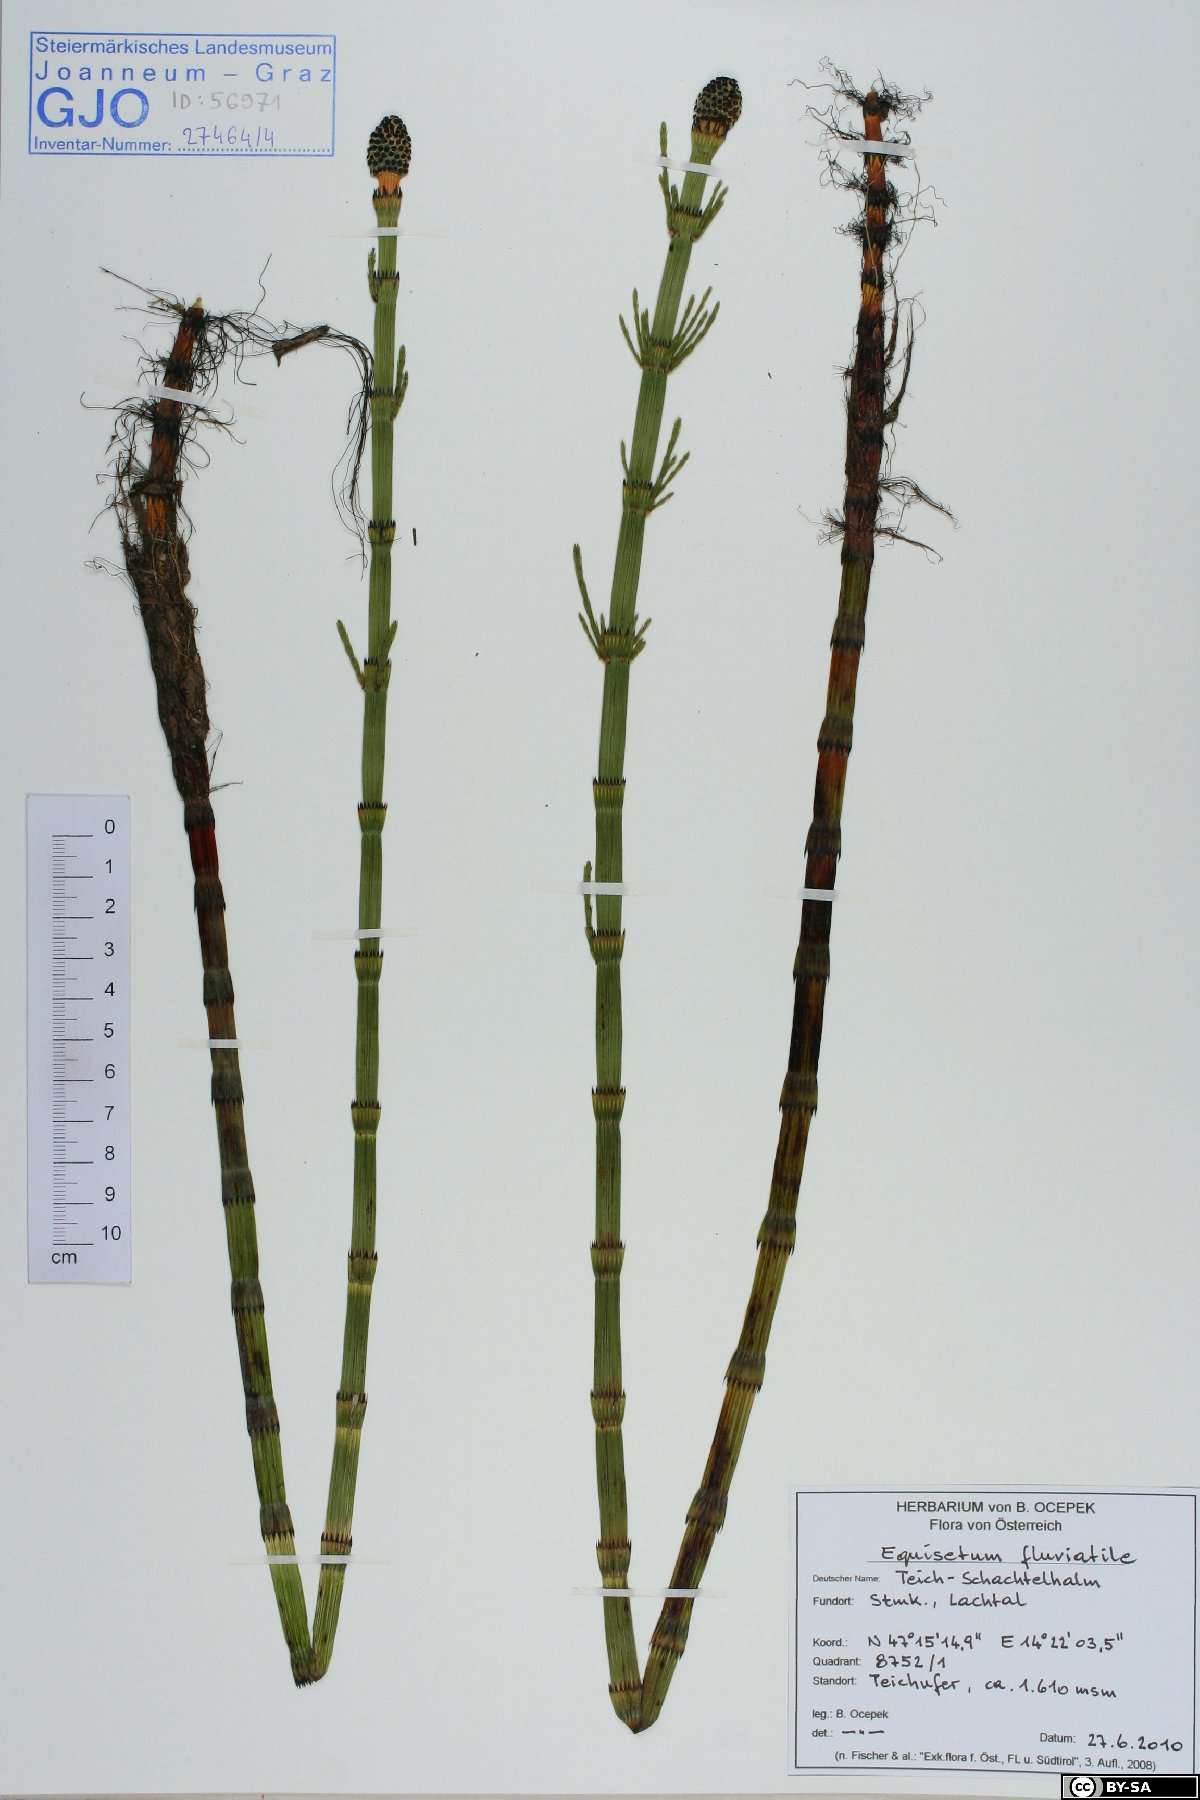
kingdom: Plantae
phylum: Tracheophyta
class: Polypodiopsida
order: Equisetales
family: Equisetaceae
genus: Equisetum
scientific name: Equisetum fluviatile
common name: Water horsetail
